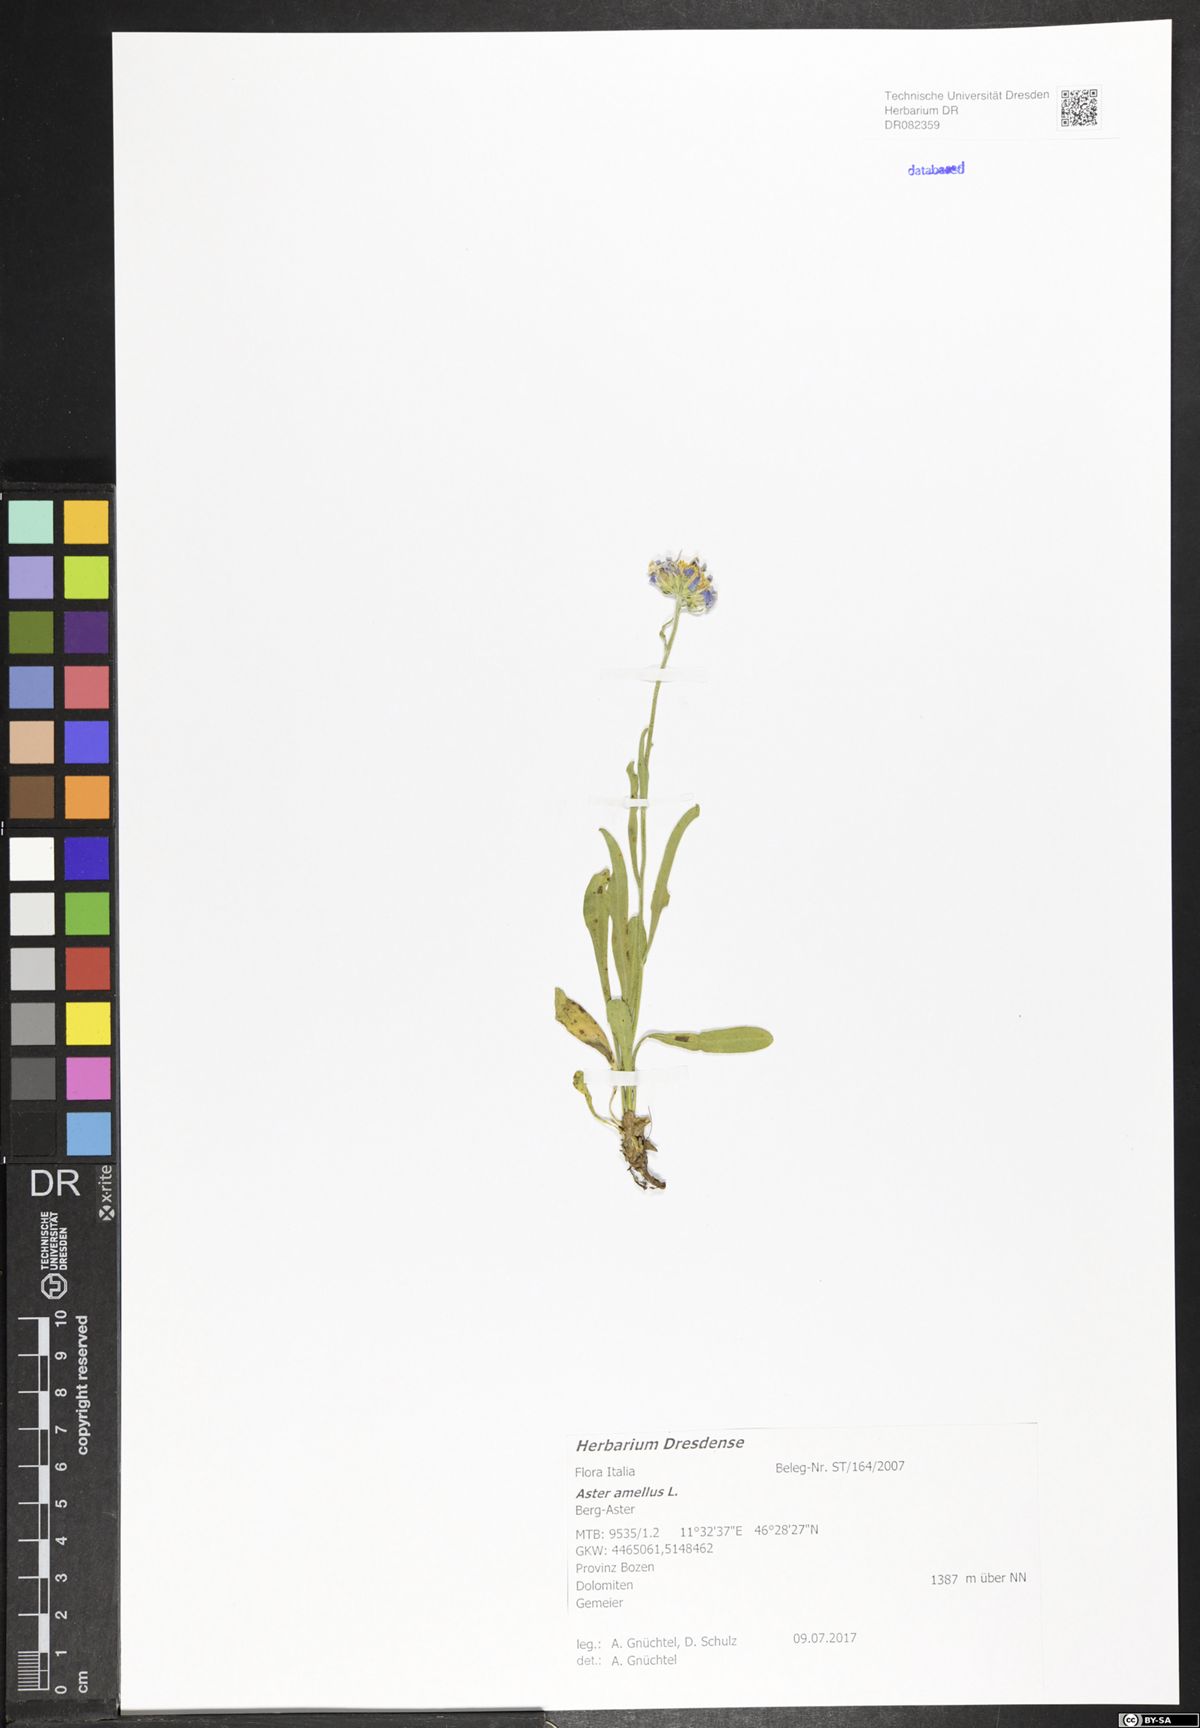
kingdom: Plantae
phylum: Tracheophyta
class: Magnoliopsida
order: Asterales
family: Asteraceae
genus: Aster
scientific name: Aster amellus
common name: European michaelmas daisy
